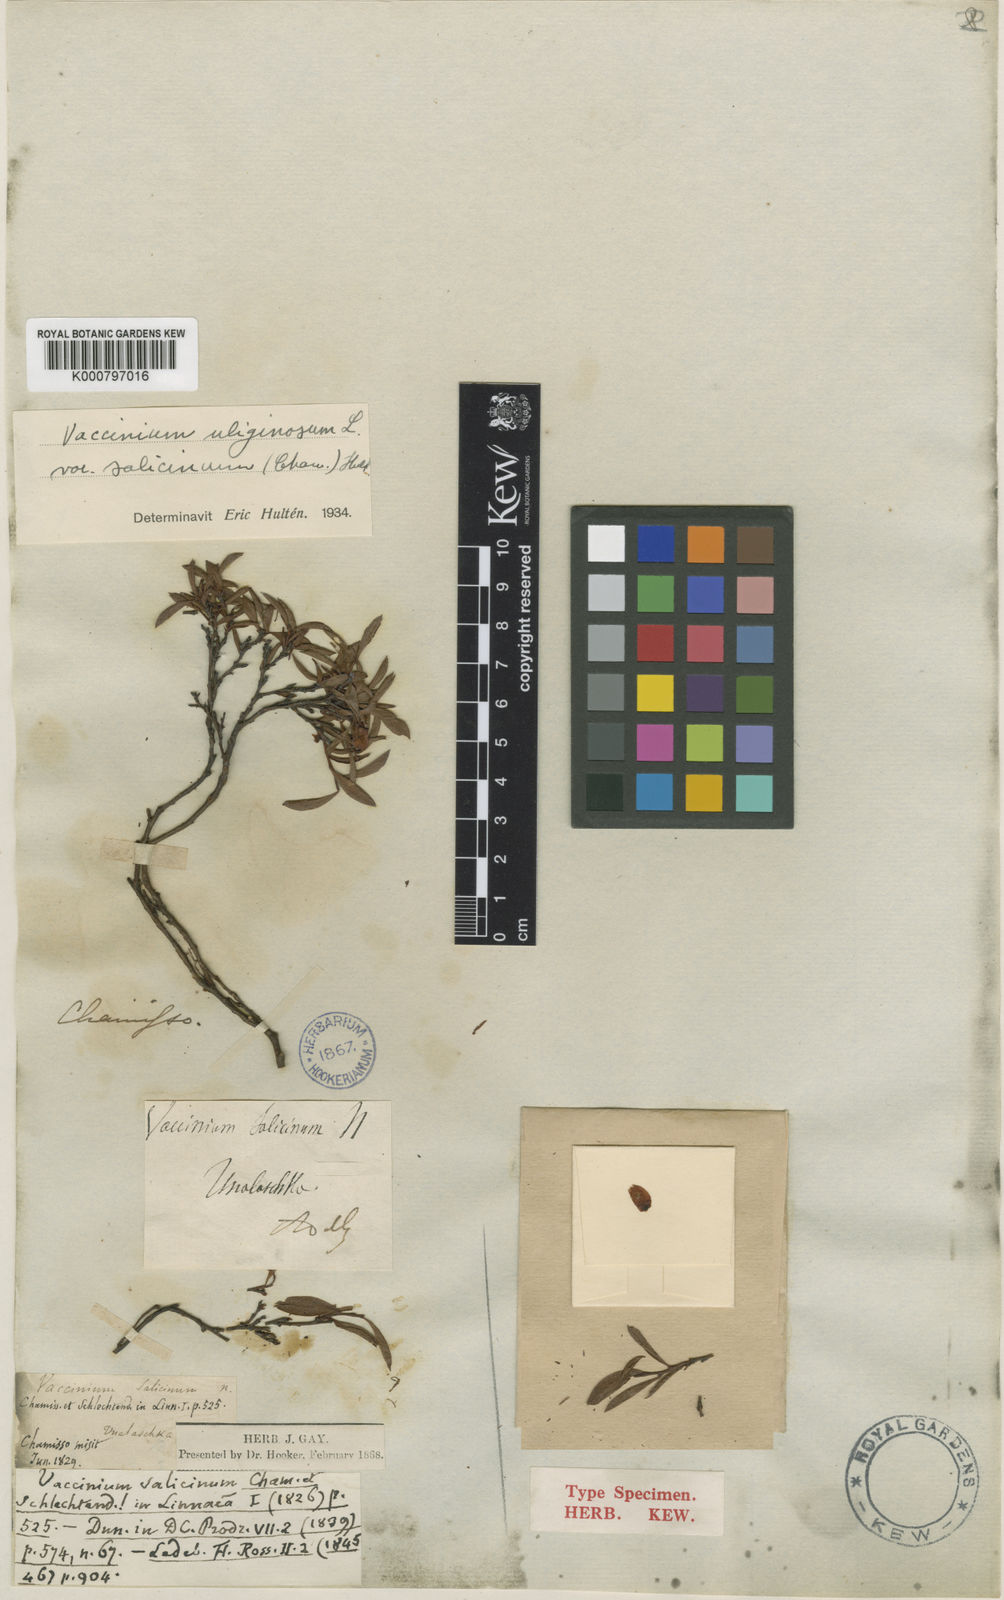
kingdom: Plantae
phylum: Tracheophyta
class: Magnoliopsida
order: Ericales
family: Ericaceae
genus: Vaccinium
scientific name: Vaccinium uliginosum
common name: Bog bilberry
